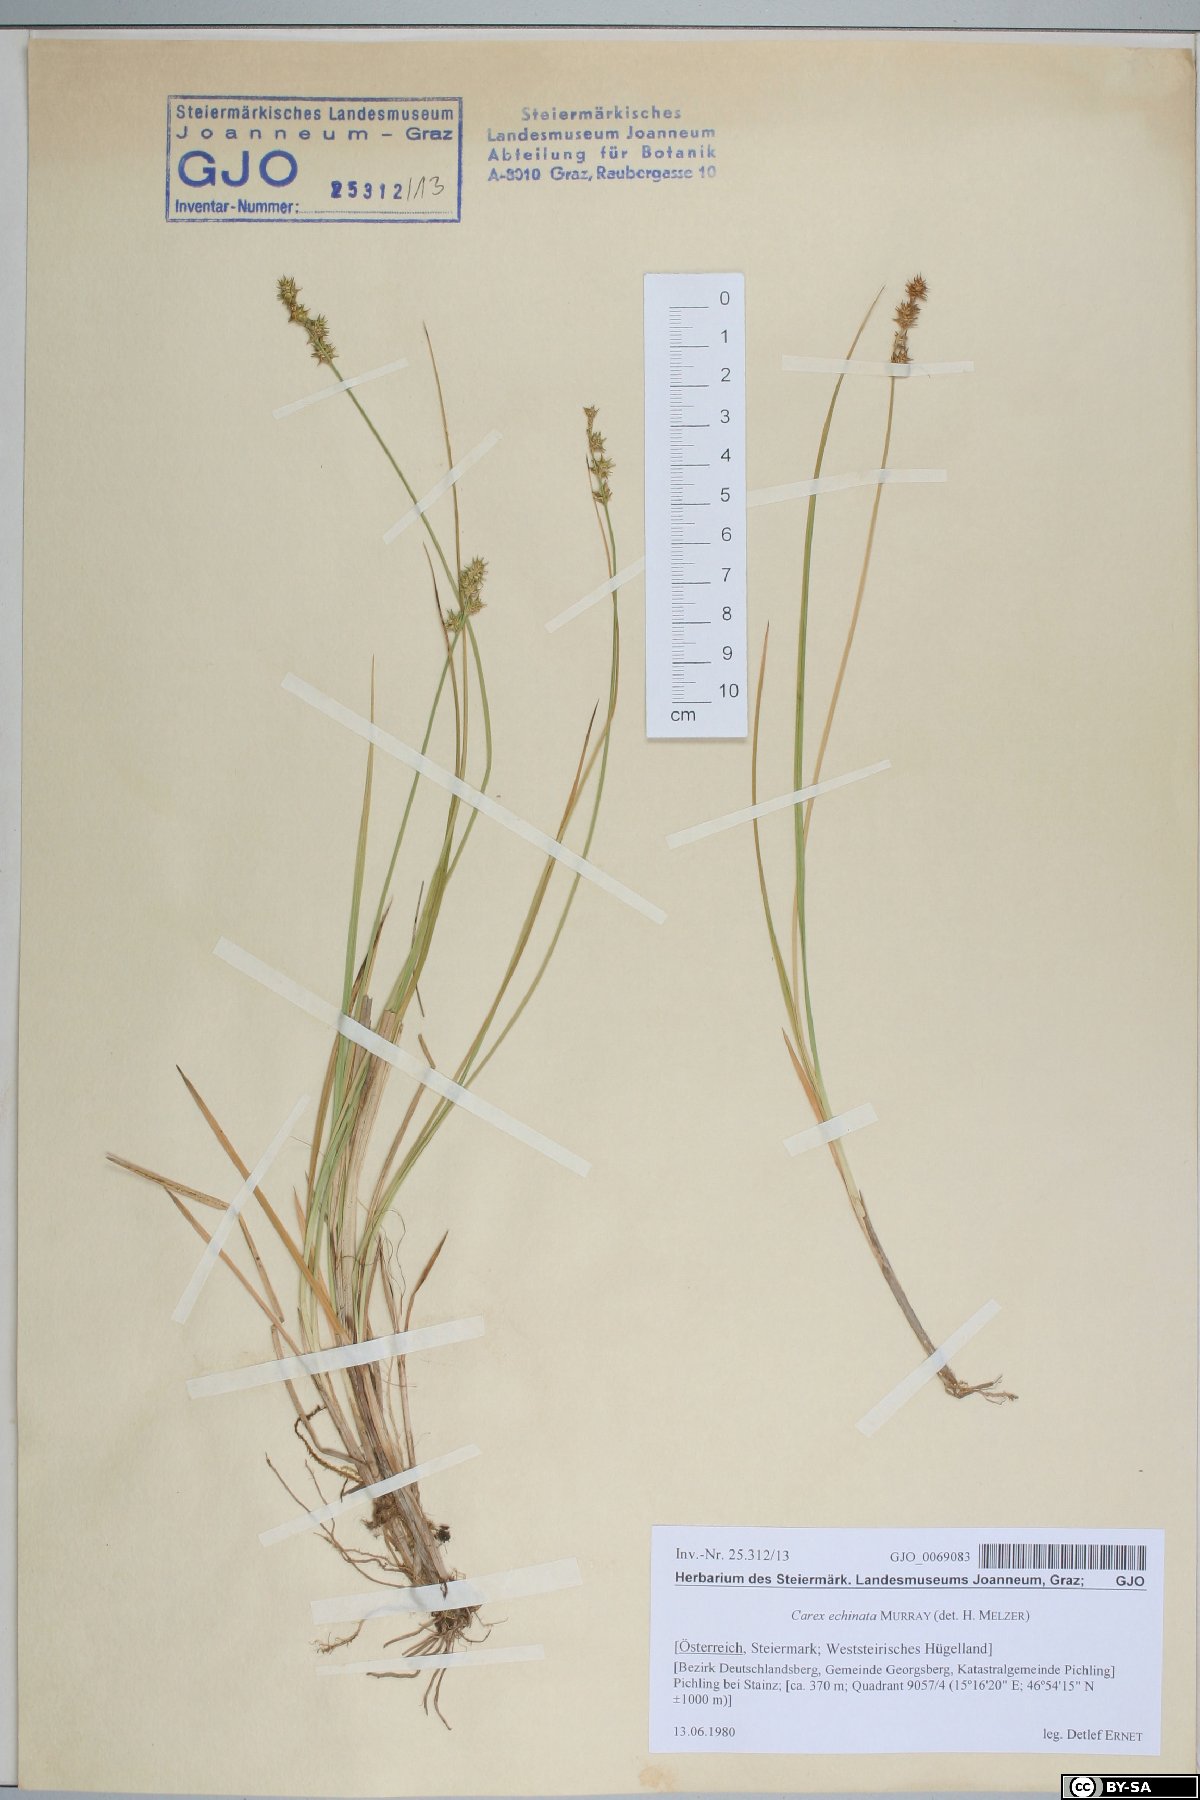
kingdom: Plantae
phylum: Tracheophyta
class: Liliopsida
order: Poales
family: Cyperaceae
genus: Carex
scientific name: Carex echinata
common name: Star sedge
